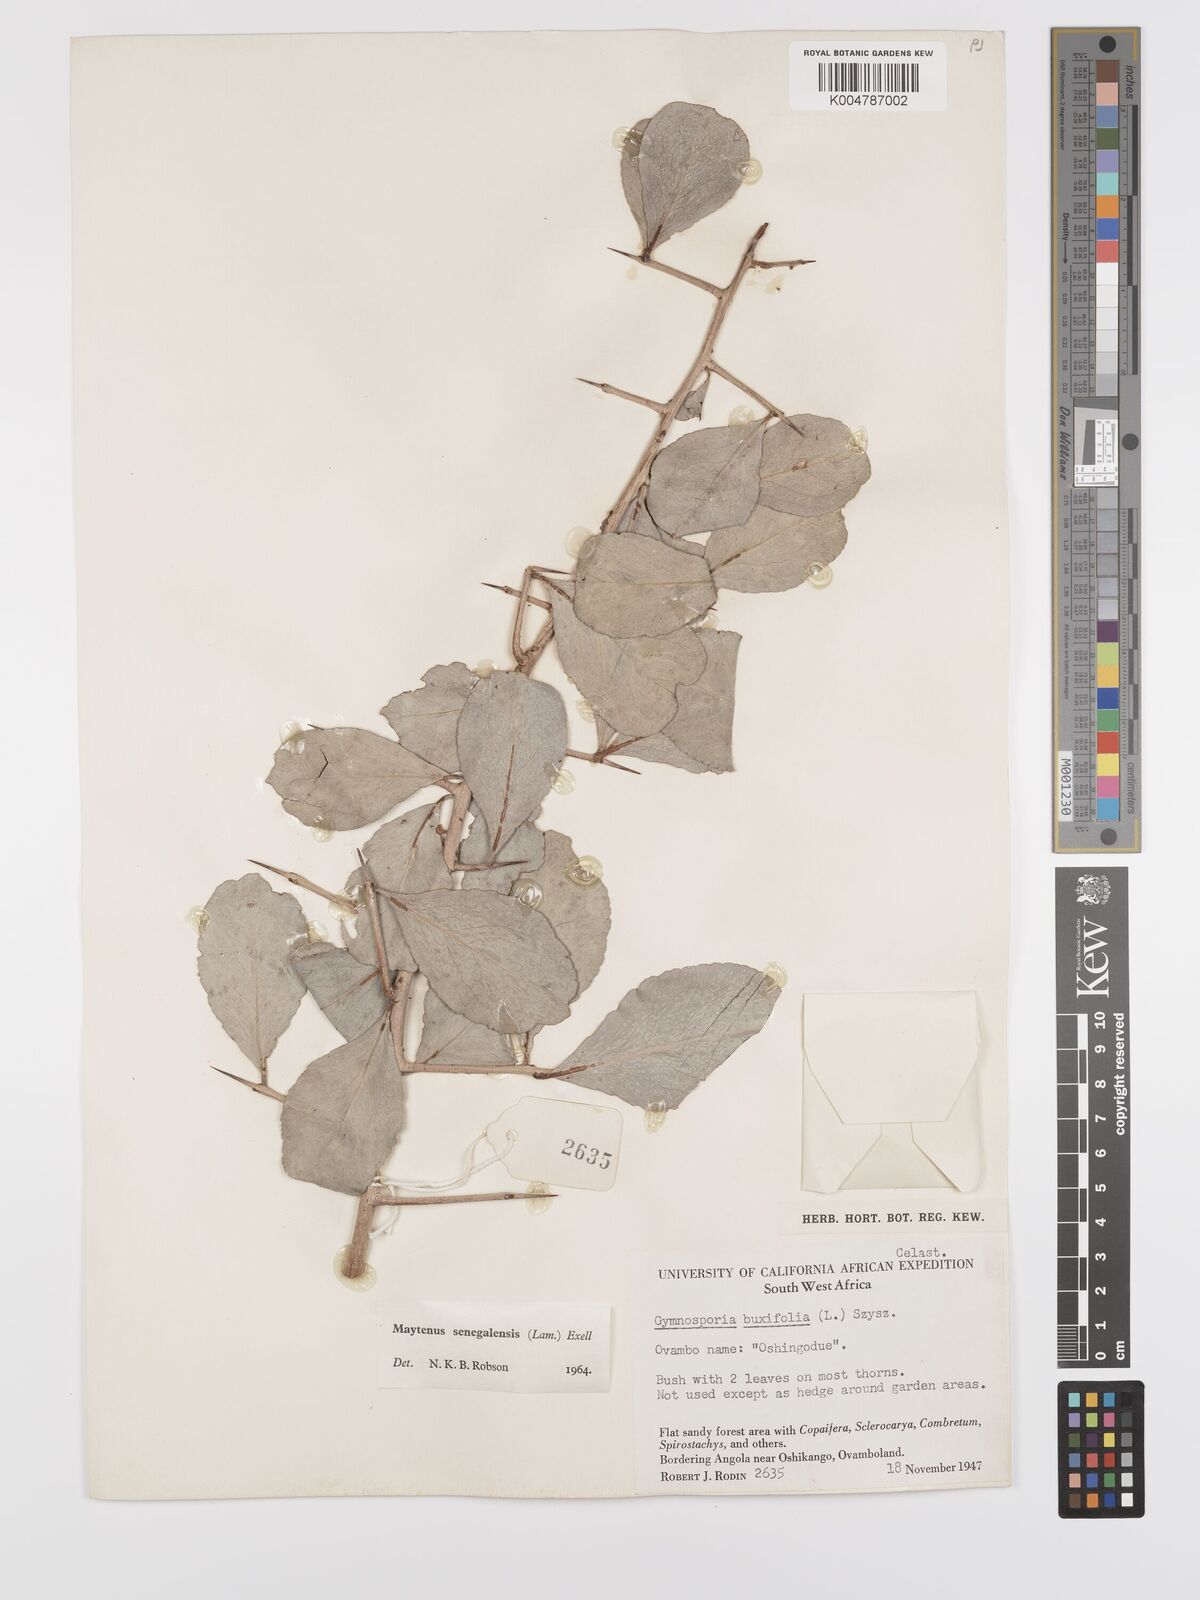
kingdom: Plantae
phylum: Tracheophyta
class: Magnoliopsida
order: Celastrales
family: Celastraceae
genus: Gymnosporia
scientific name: Gymnosporia senegalensis
